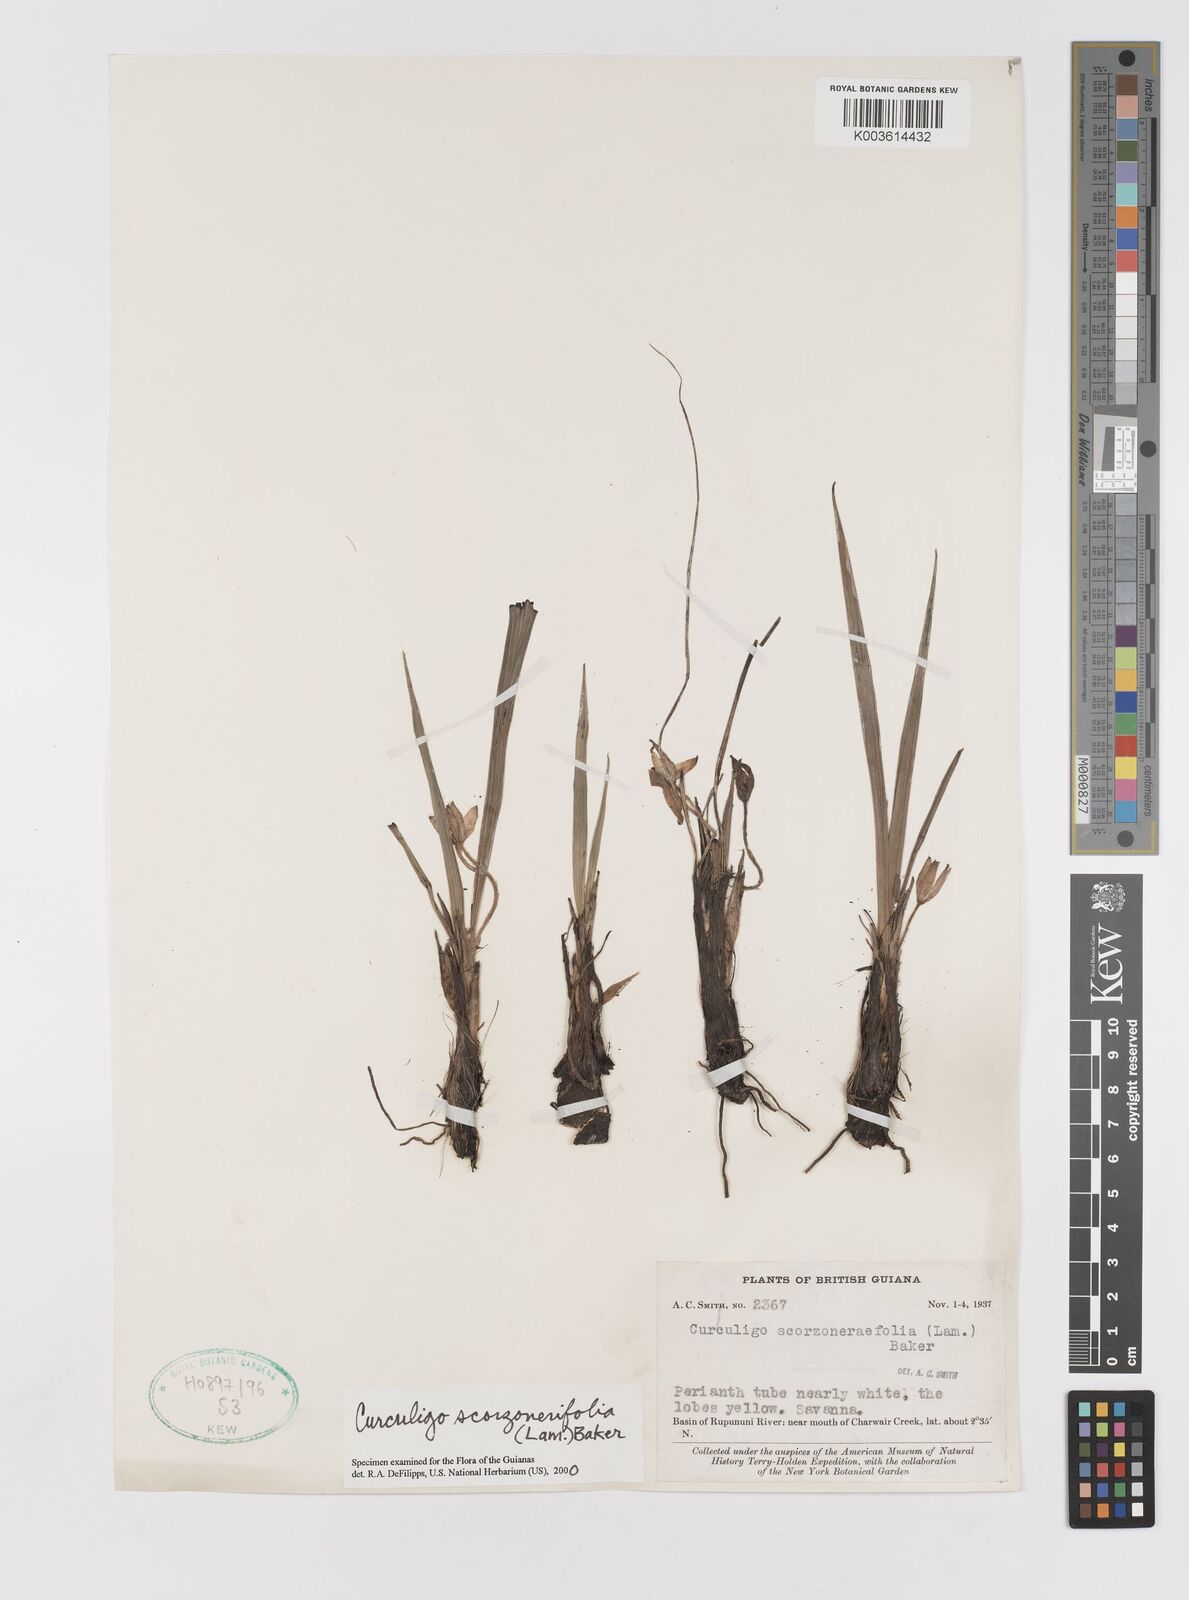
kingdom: Plantae
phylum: Tracheophyta
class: Liliopsida
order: Asparagales
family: Hypoxidaceae
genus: Curculigo
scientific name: Curculigo scorzonerifolia
